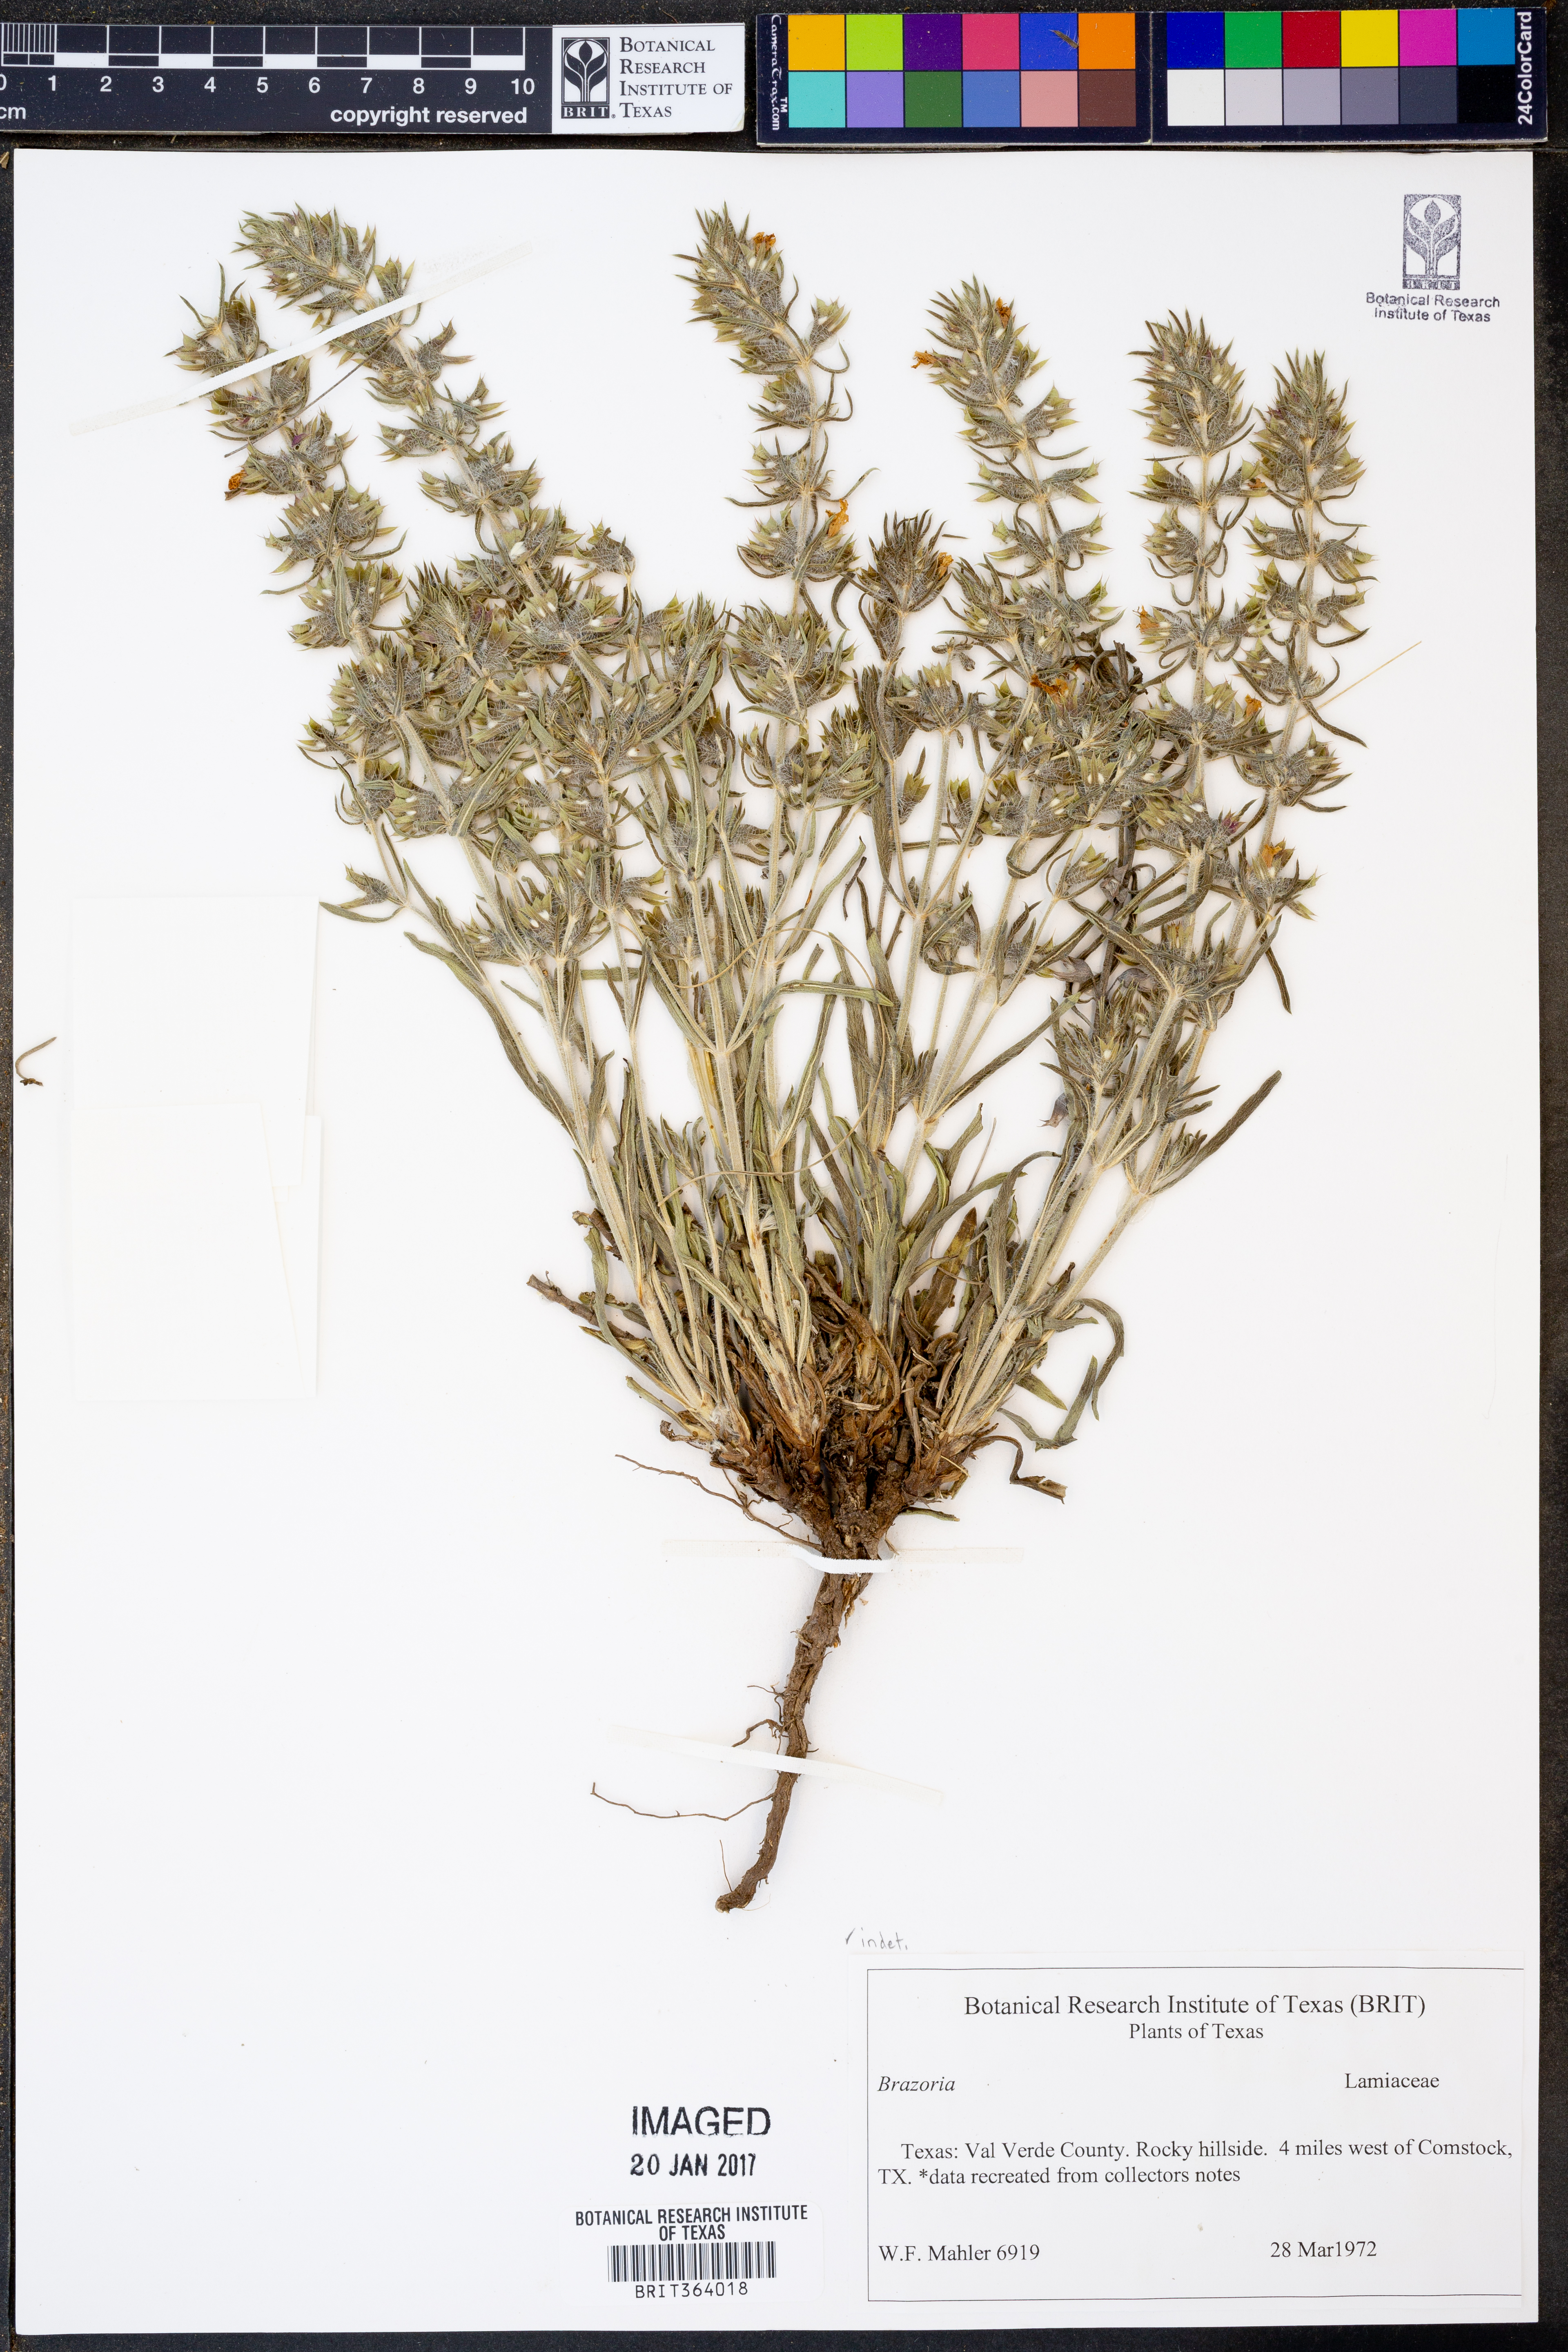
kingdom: Plantae
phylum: Tracheophyta
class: Magnoliopsida
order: Lamiales
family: Lamiaceae
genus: Brazoria
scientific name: Brazoria
